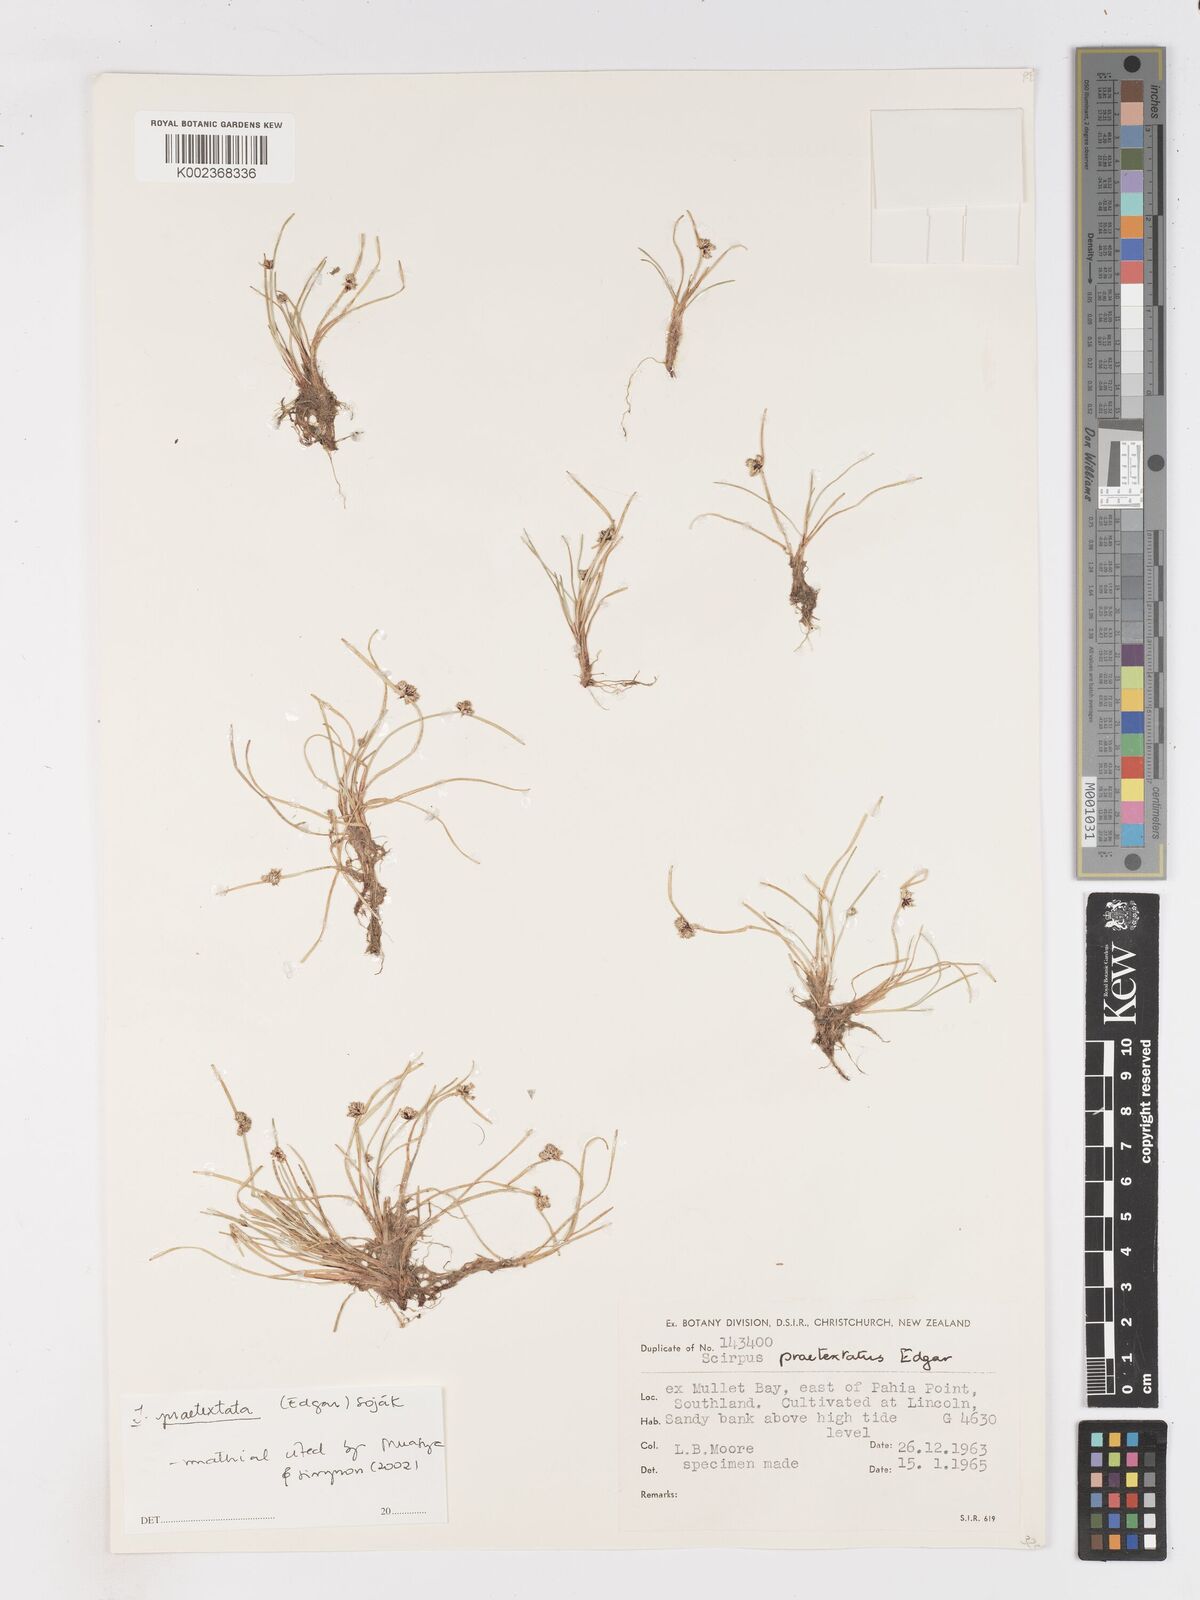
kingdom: Plantae
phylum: Tracheophyta
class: Liliopsida
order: Poales
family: Cyperaceae
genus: Isolepis
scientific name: Isolepis praetextata
